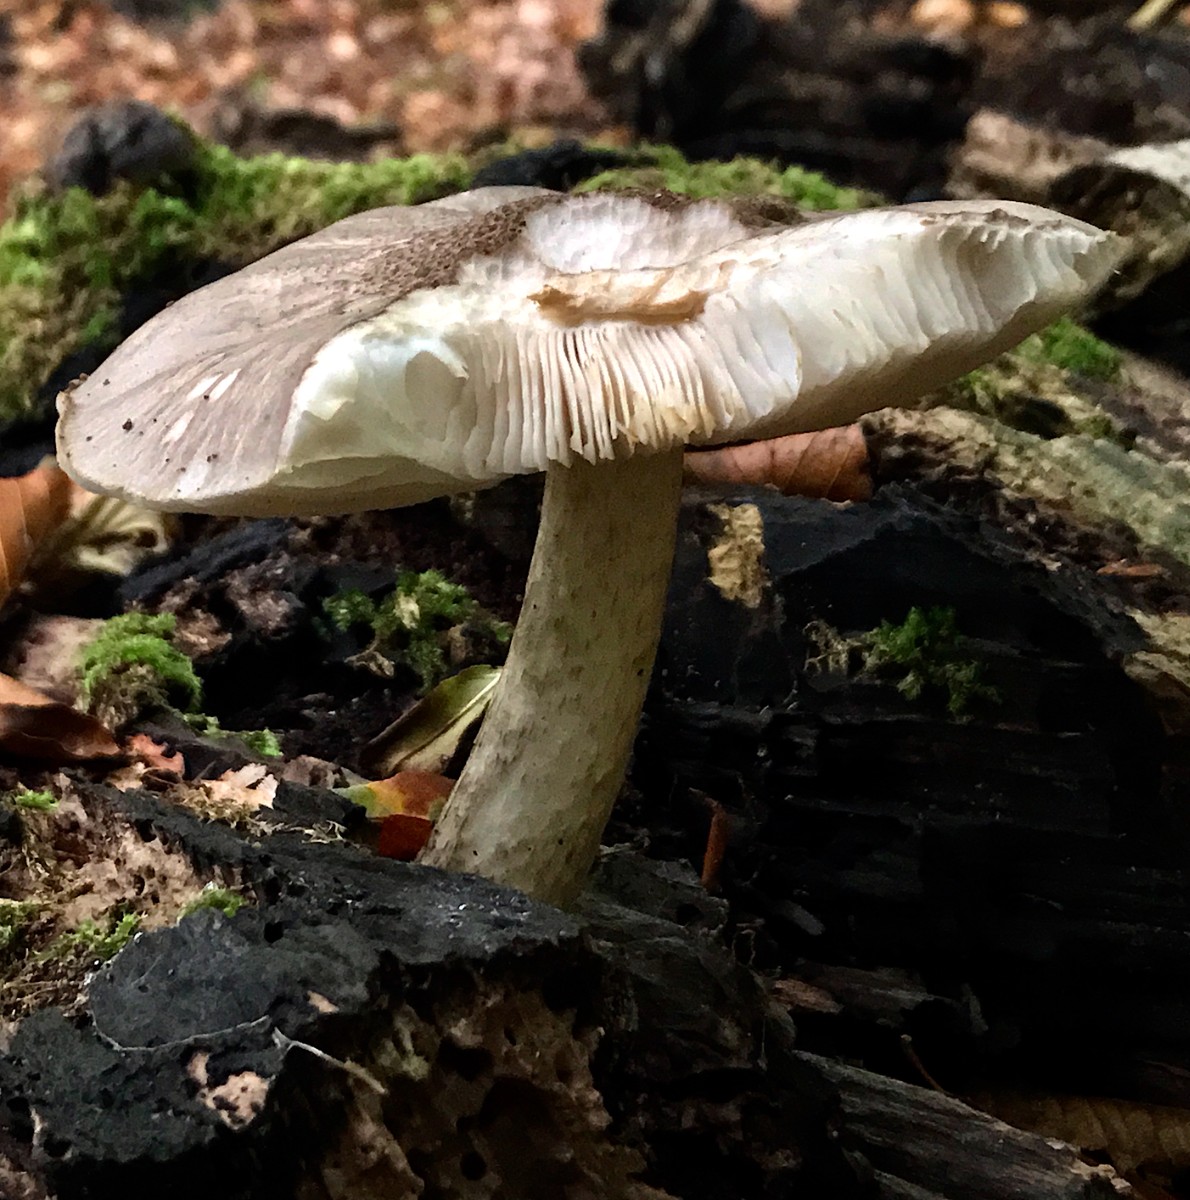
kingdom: Fungi
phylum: Basidiomycota
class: Agaricomycetes
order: Agaricales
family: Pluteaceae
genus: Pluteus
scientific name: Pluteus cervinus
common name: sodfarvet skærmhat
